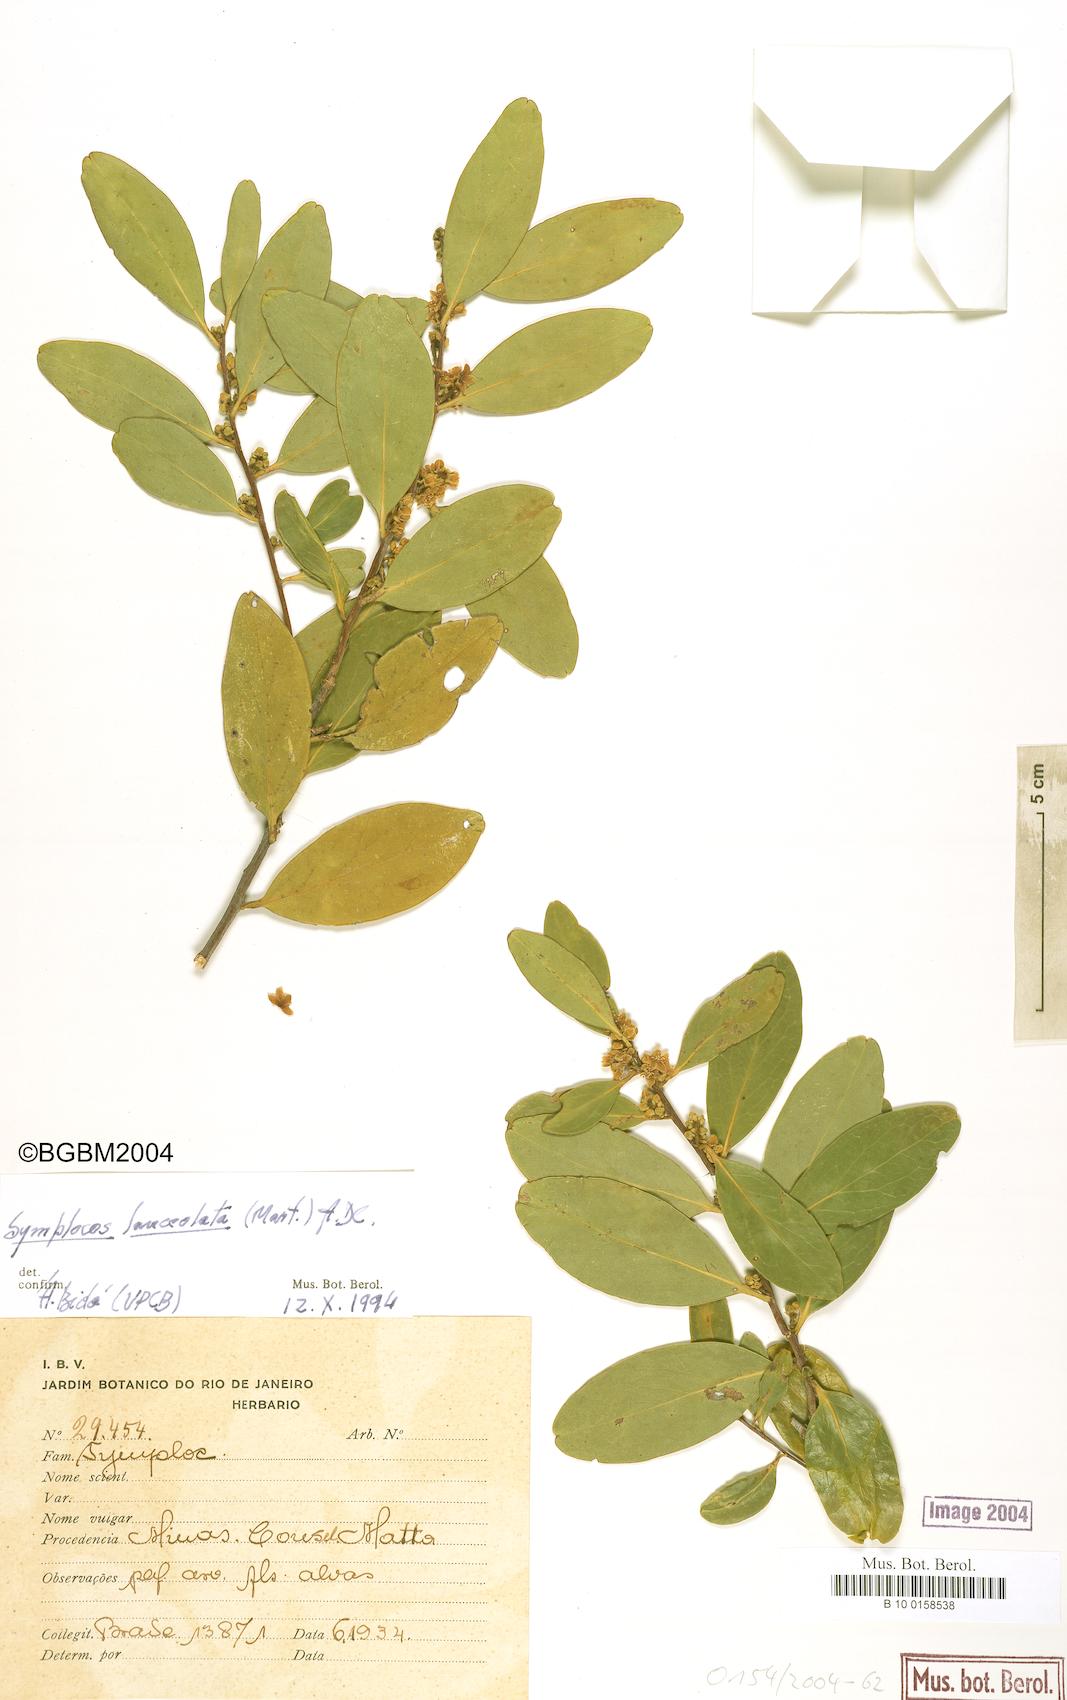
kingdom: Plantae
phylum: Tracheophyta
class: Magnoliopsida
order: Ericales
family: Symplocaceae
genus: Symplocos
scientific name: Symplocos oblongifolia
